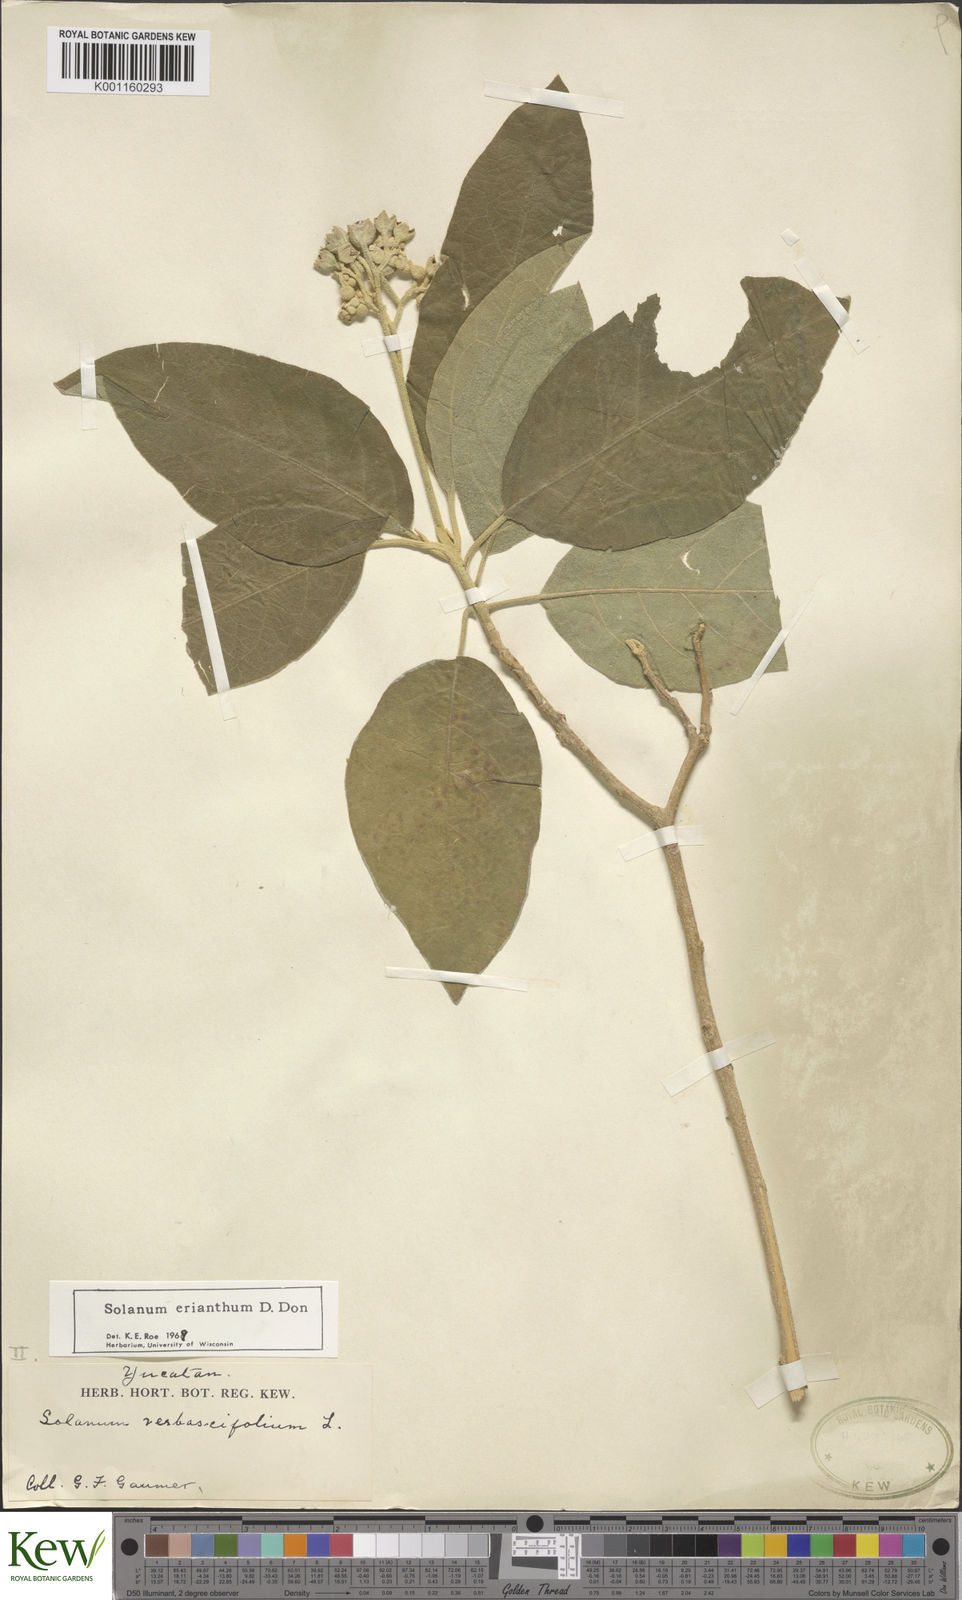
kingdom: Plantae
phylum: Tracheophyta
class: Magnoliopsida
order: Solanales
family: Solanaceae
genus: Solanum
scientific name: Solanum erianthum
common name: Tobacco-tree
